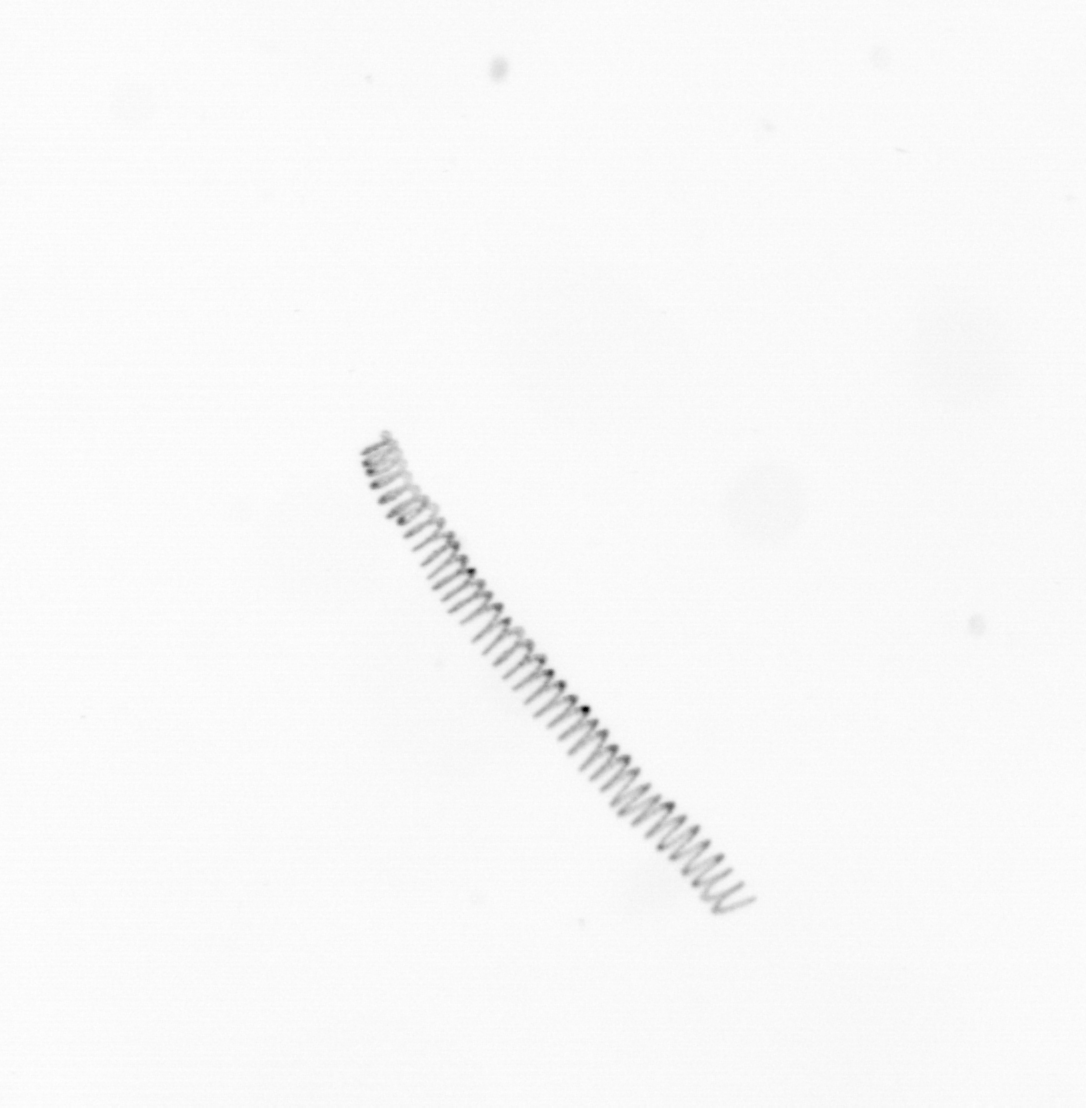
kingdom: Chromista
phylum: Ochrophyta
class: Bacillariophyceae
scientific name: Bacillariophyceae
